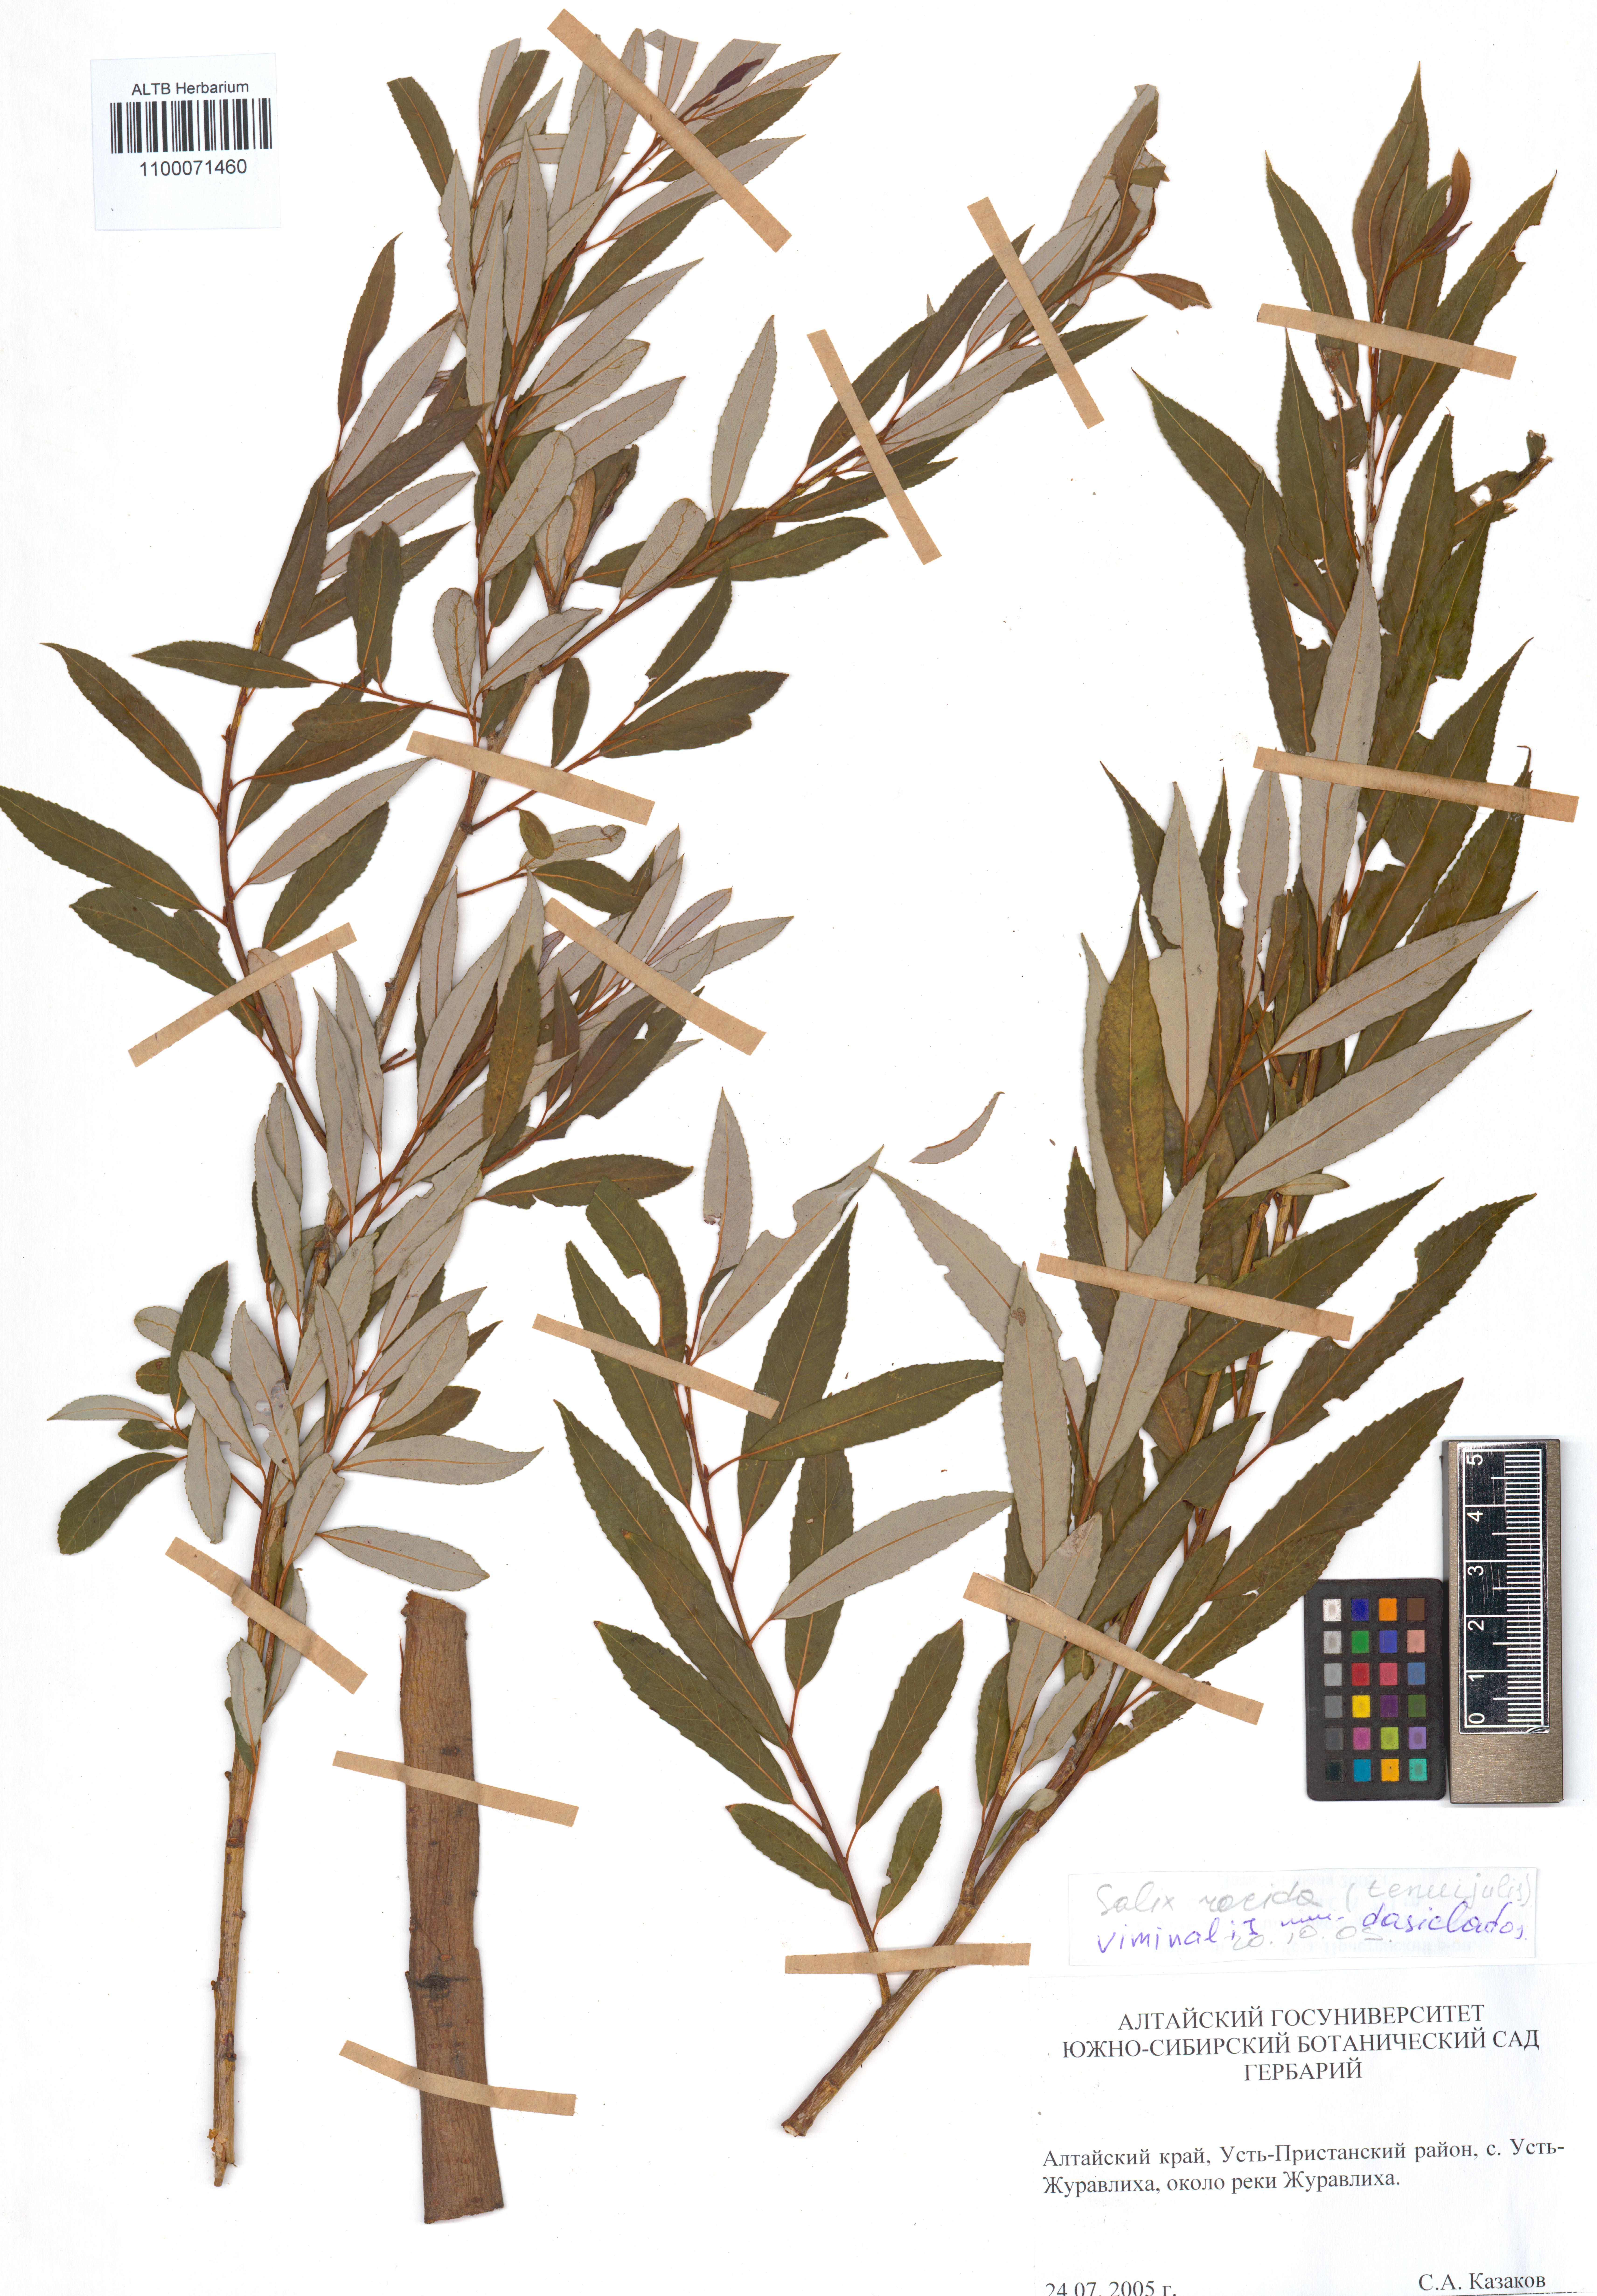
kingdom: Plantae
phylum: Tracheophyta
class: Magnoliopsida
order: Malpighiales
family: Salicaceae
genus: Salix
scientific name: Salix gmelinii
